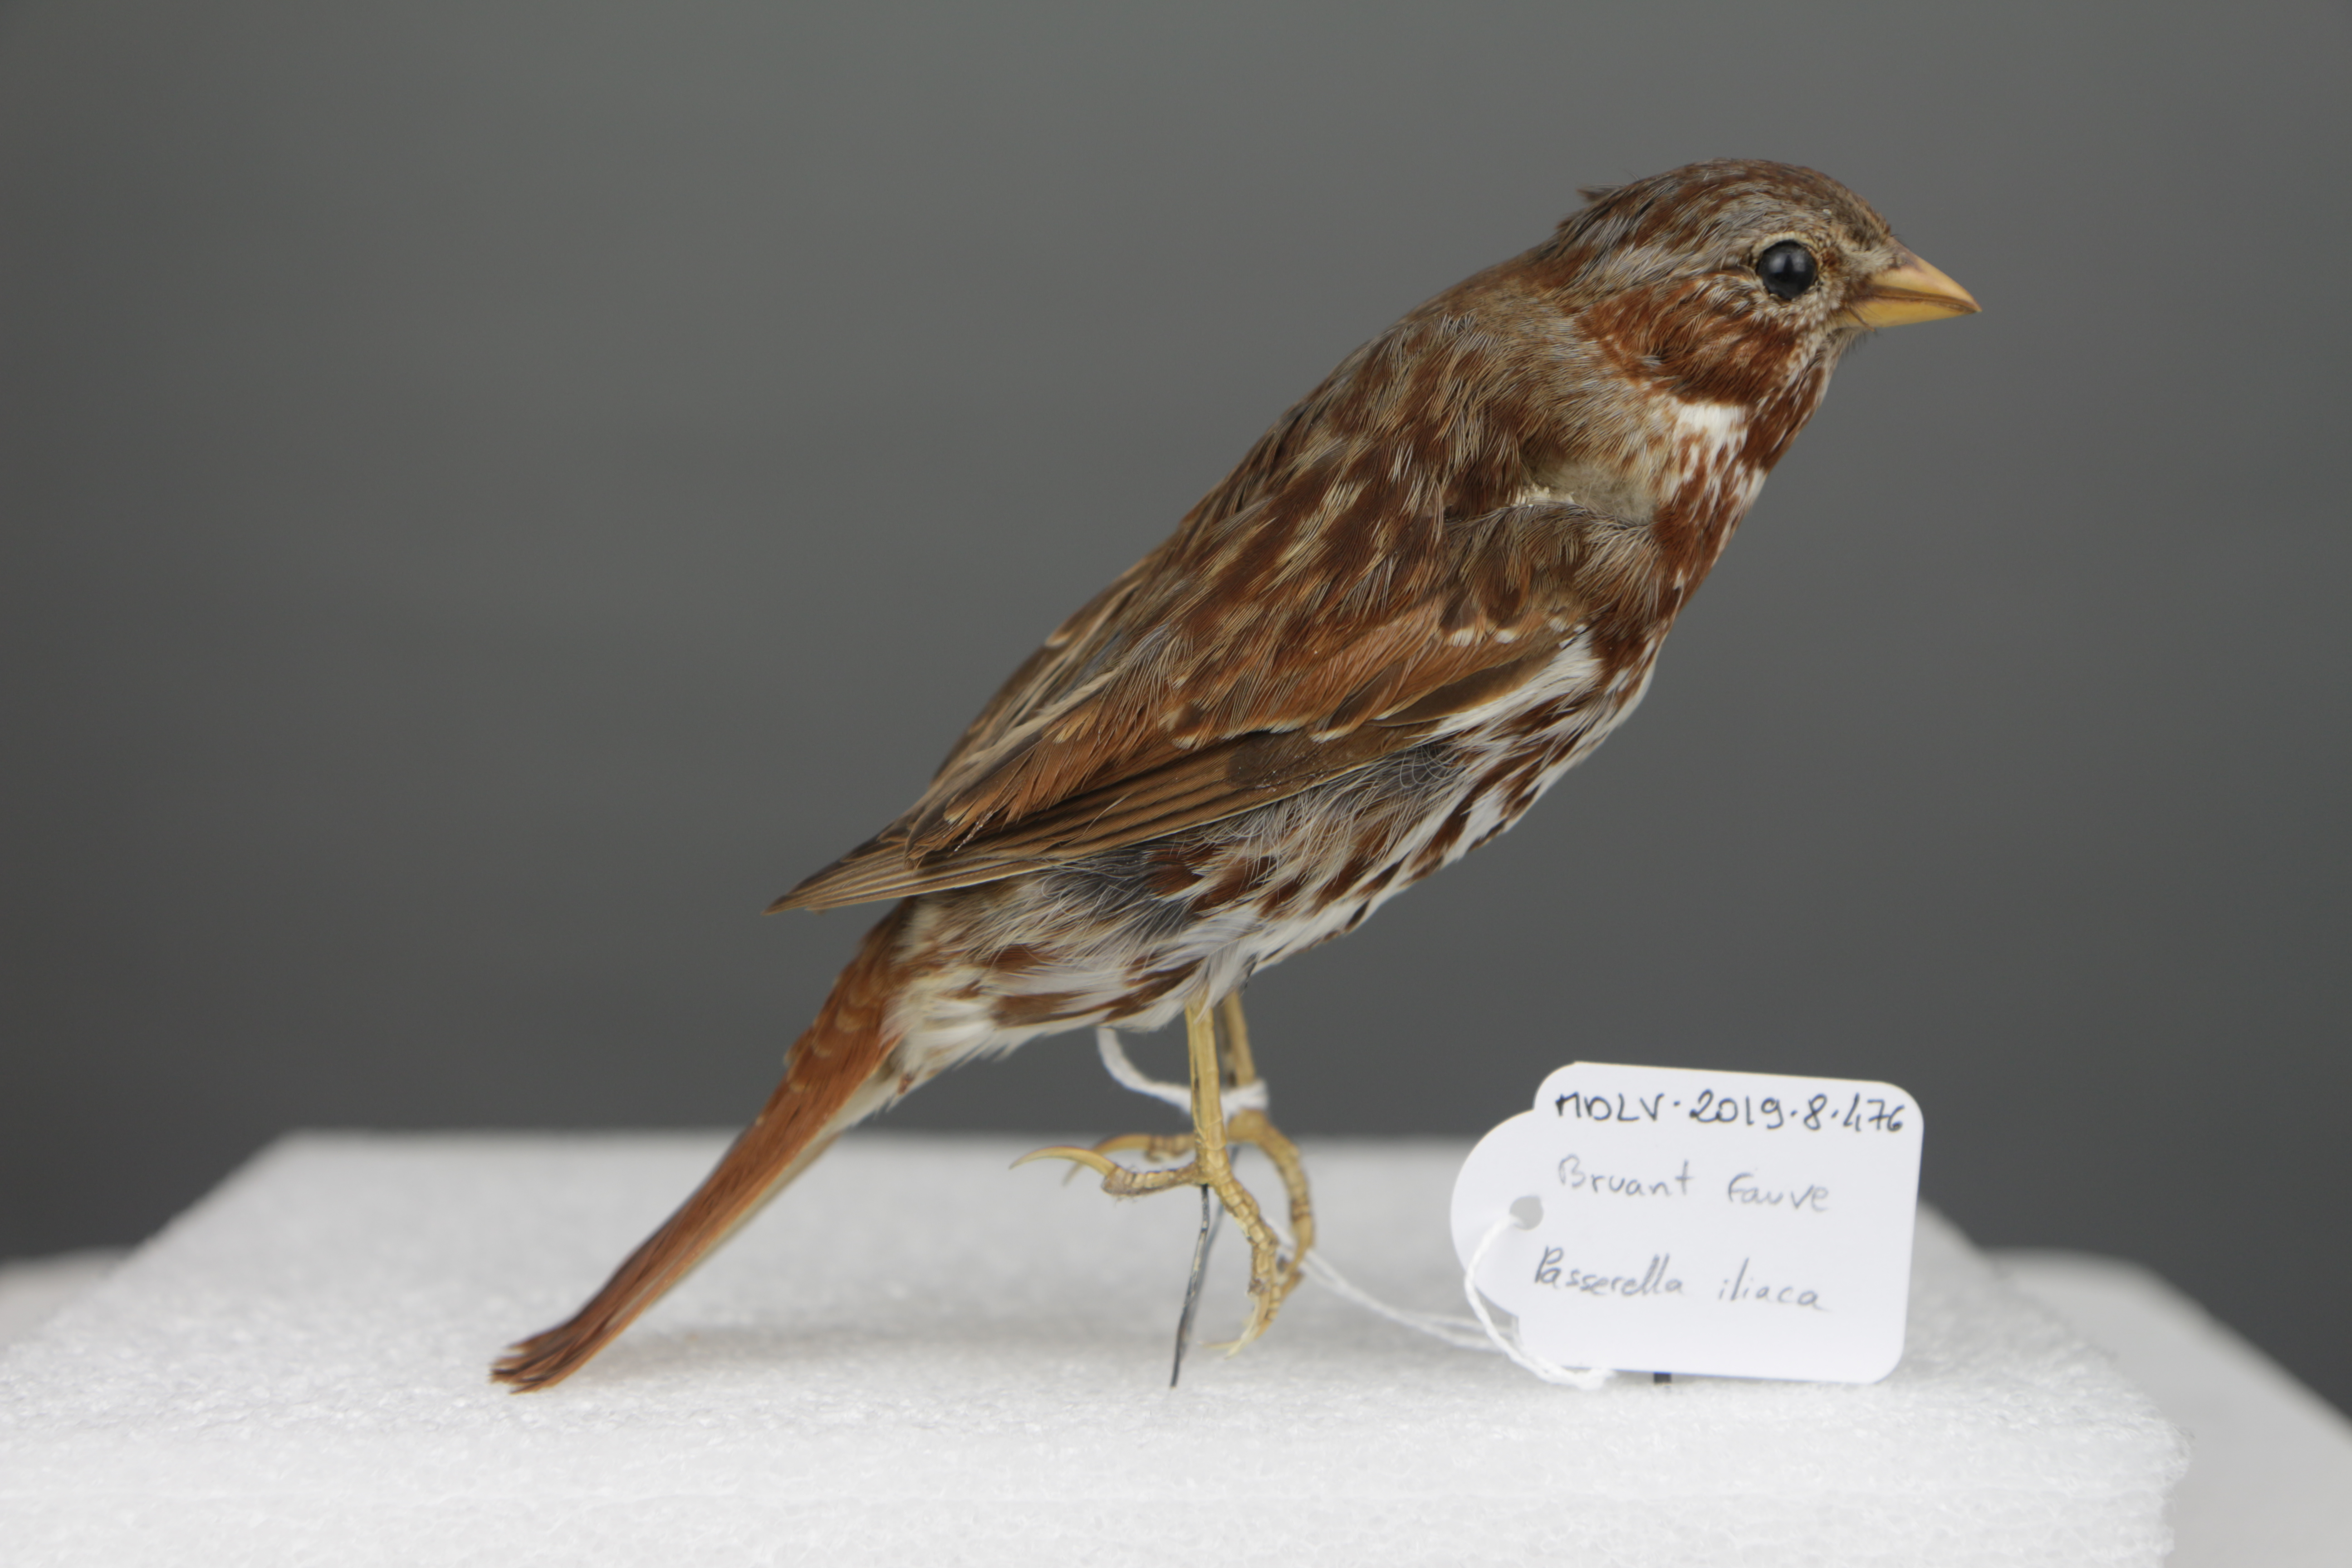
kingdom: Animalia
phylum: Chordata
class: Aves
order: Passeriformes
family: Passerellidae
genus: Passerella
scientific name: Passerella iliaca
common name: Fox sparrow
